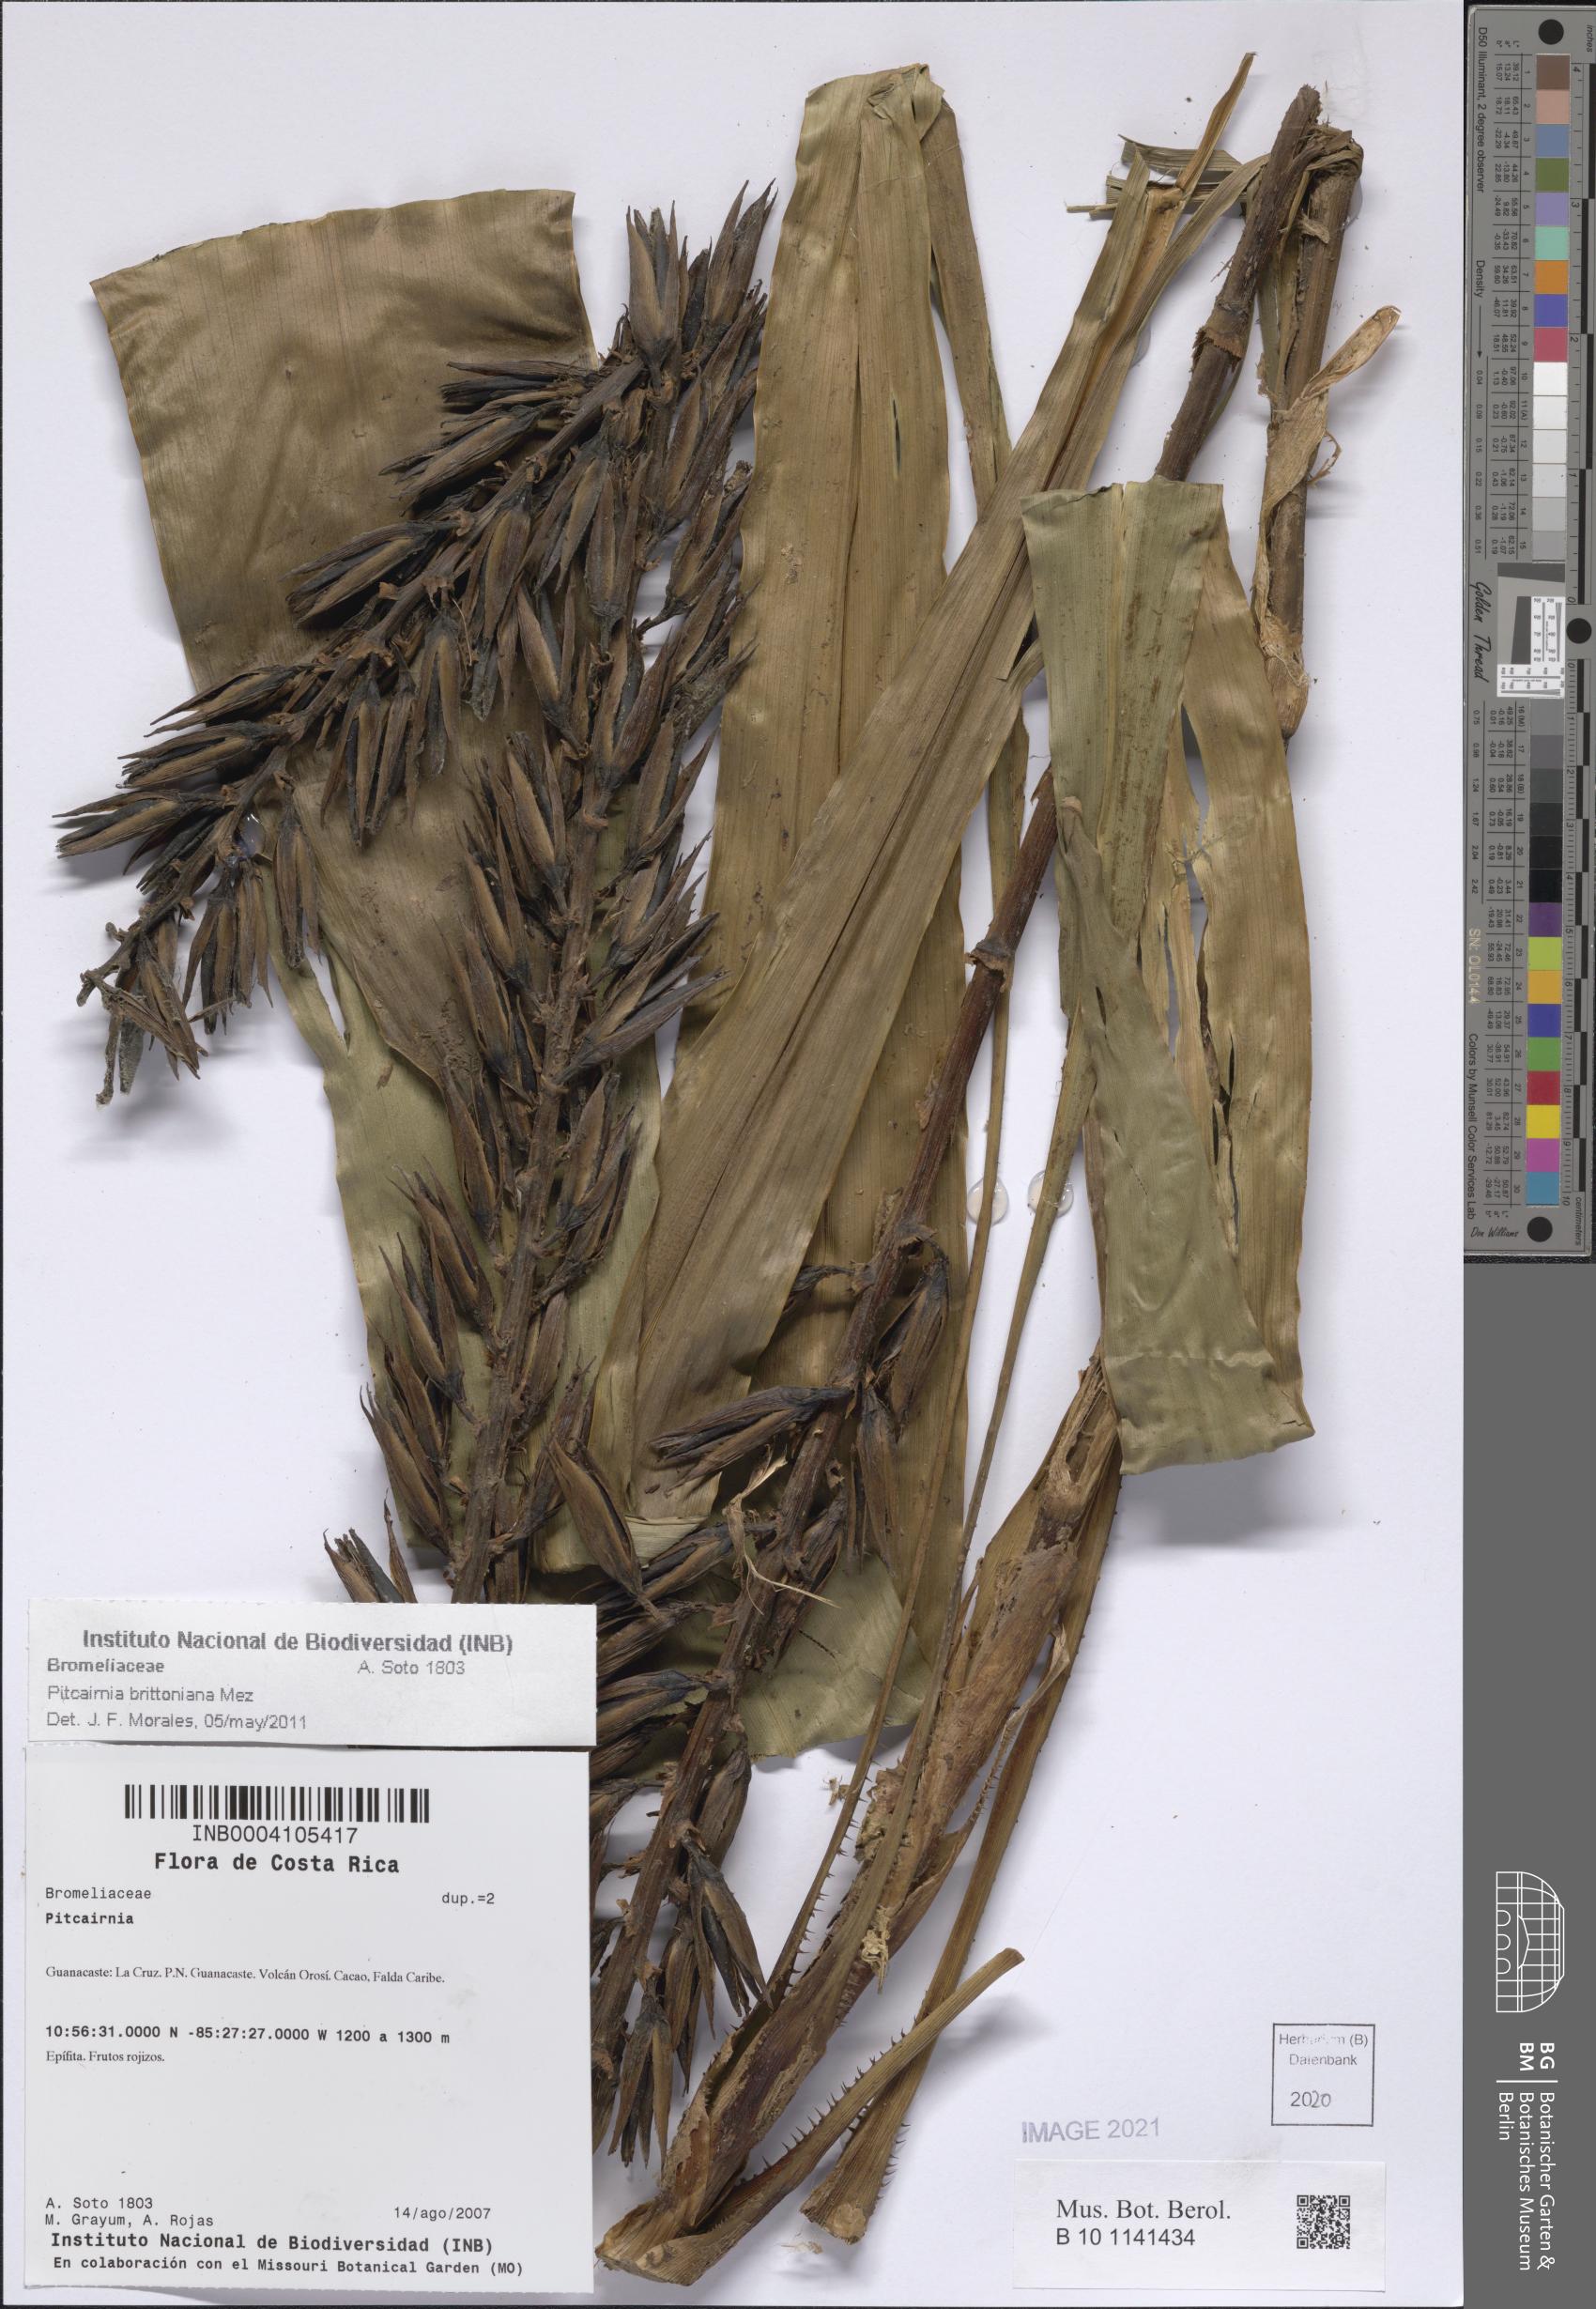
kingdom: Plantae
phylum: Tracheophyta
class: Liliopsida
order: Poales
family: Bromeliaceae
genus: Pitcairnia
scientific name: Pitcairnia brittoniana
